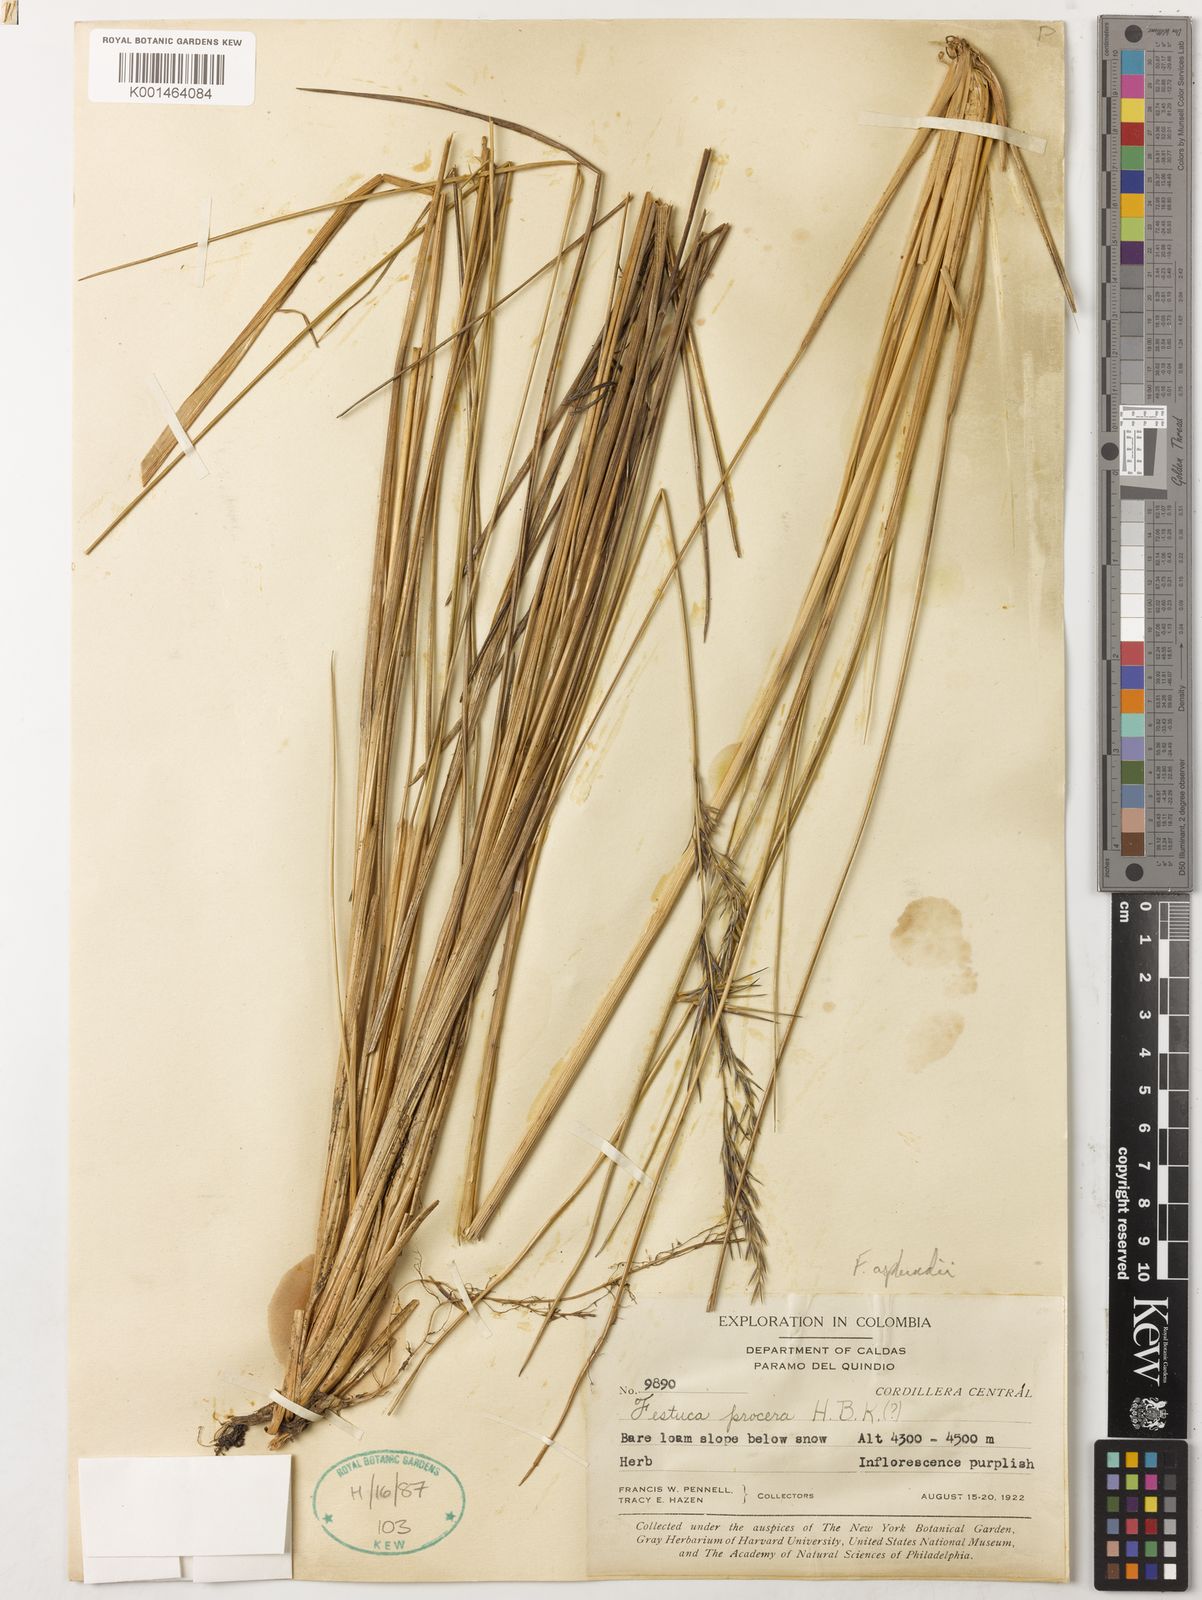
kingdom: Plantae
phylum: Tracheophyta
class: Liliopsida
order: Poales
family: Poaceae
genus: Festuca
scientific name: Festuca asplundii
